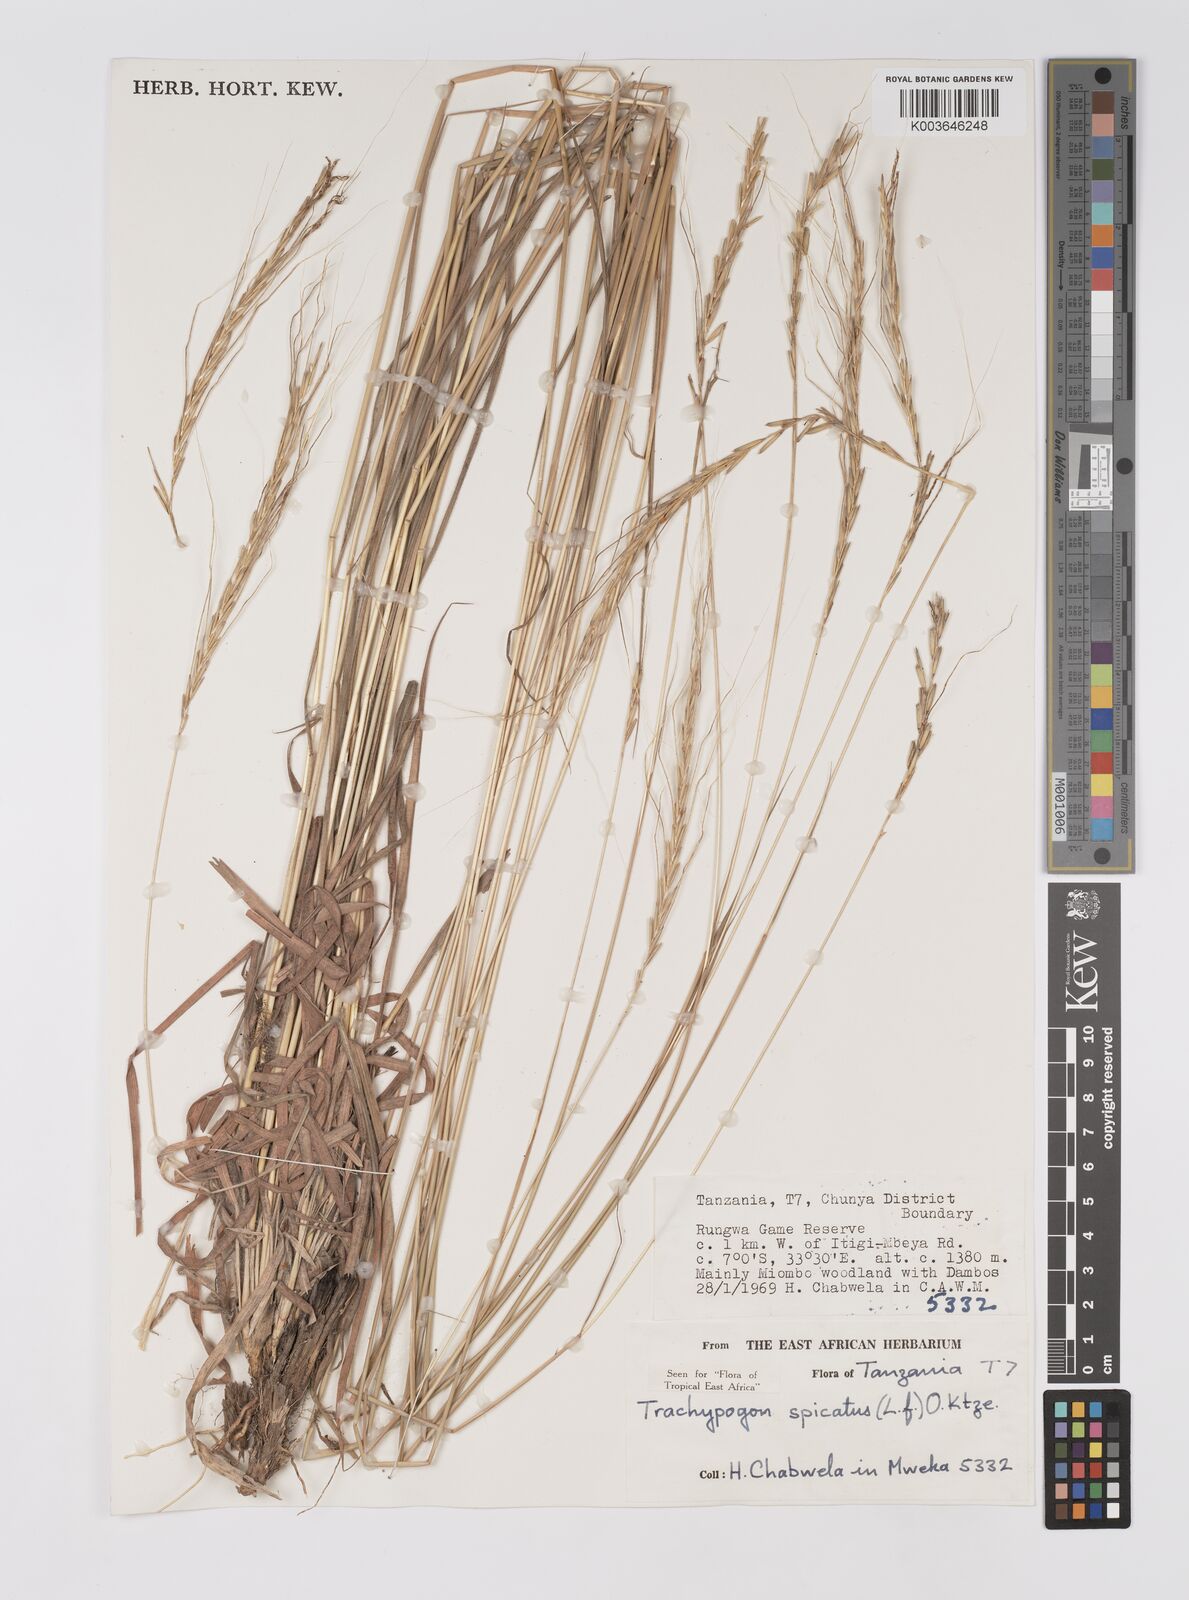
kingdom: Plantae
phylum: Tracheophyta
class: Liliopsida
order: Poales
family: Poaceae
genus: Trachypogon
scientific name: Trachypogon spicatus
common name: Crinkle-awn
